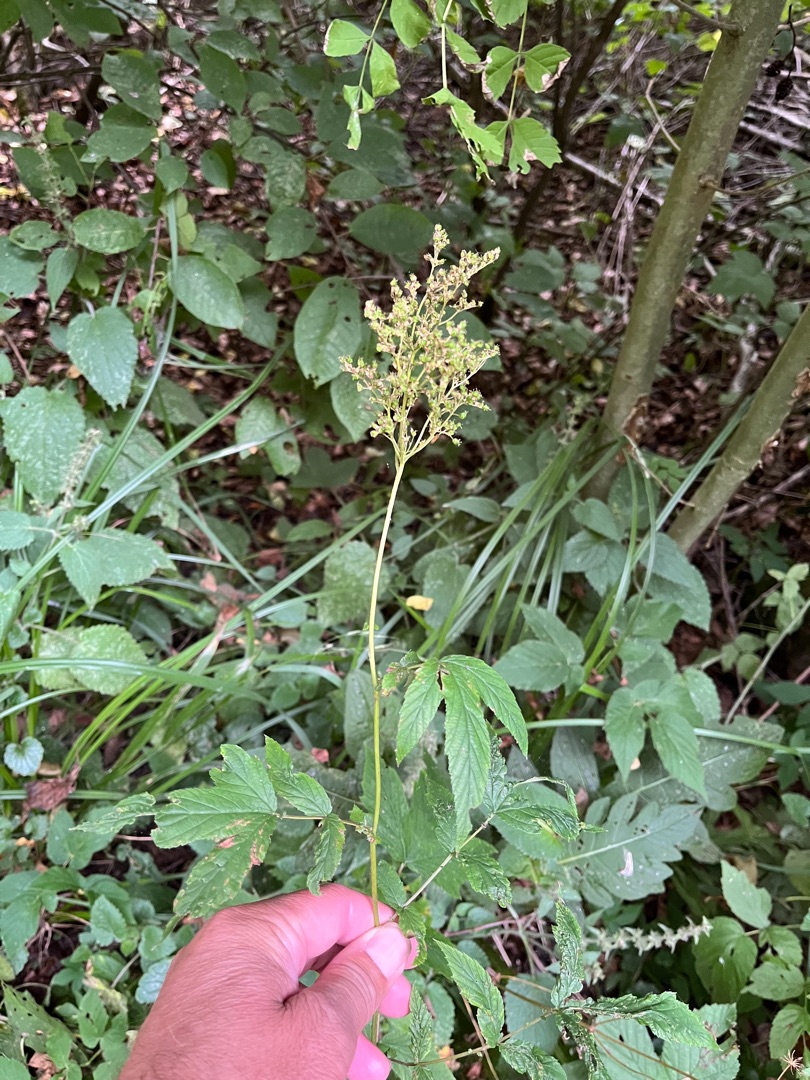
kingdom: Plantae
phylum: Tracheophyta
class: Magnoliopsida
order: Rosales
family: Rosaceae
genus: Filipendula
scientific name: Filipendula ulmaria
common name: Almindelig mjødurt
